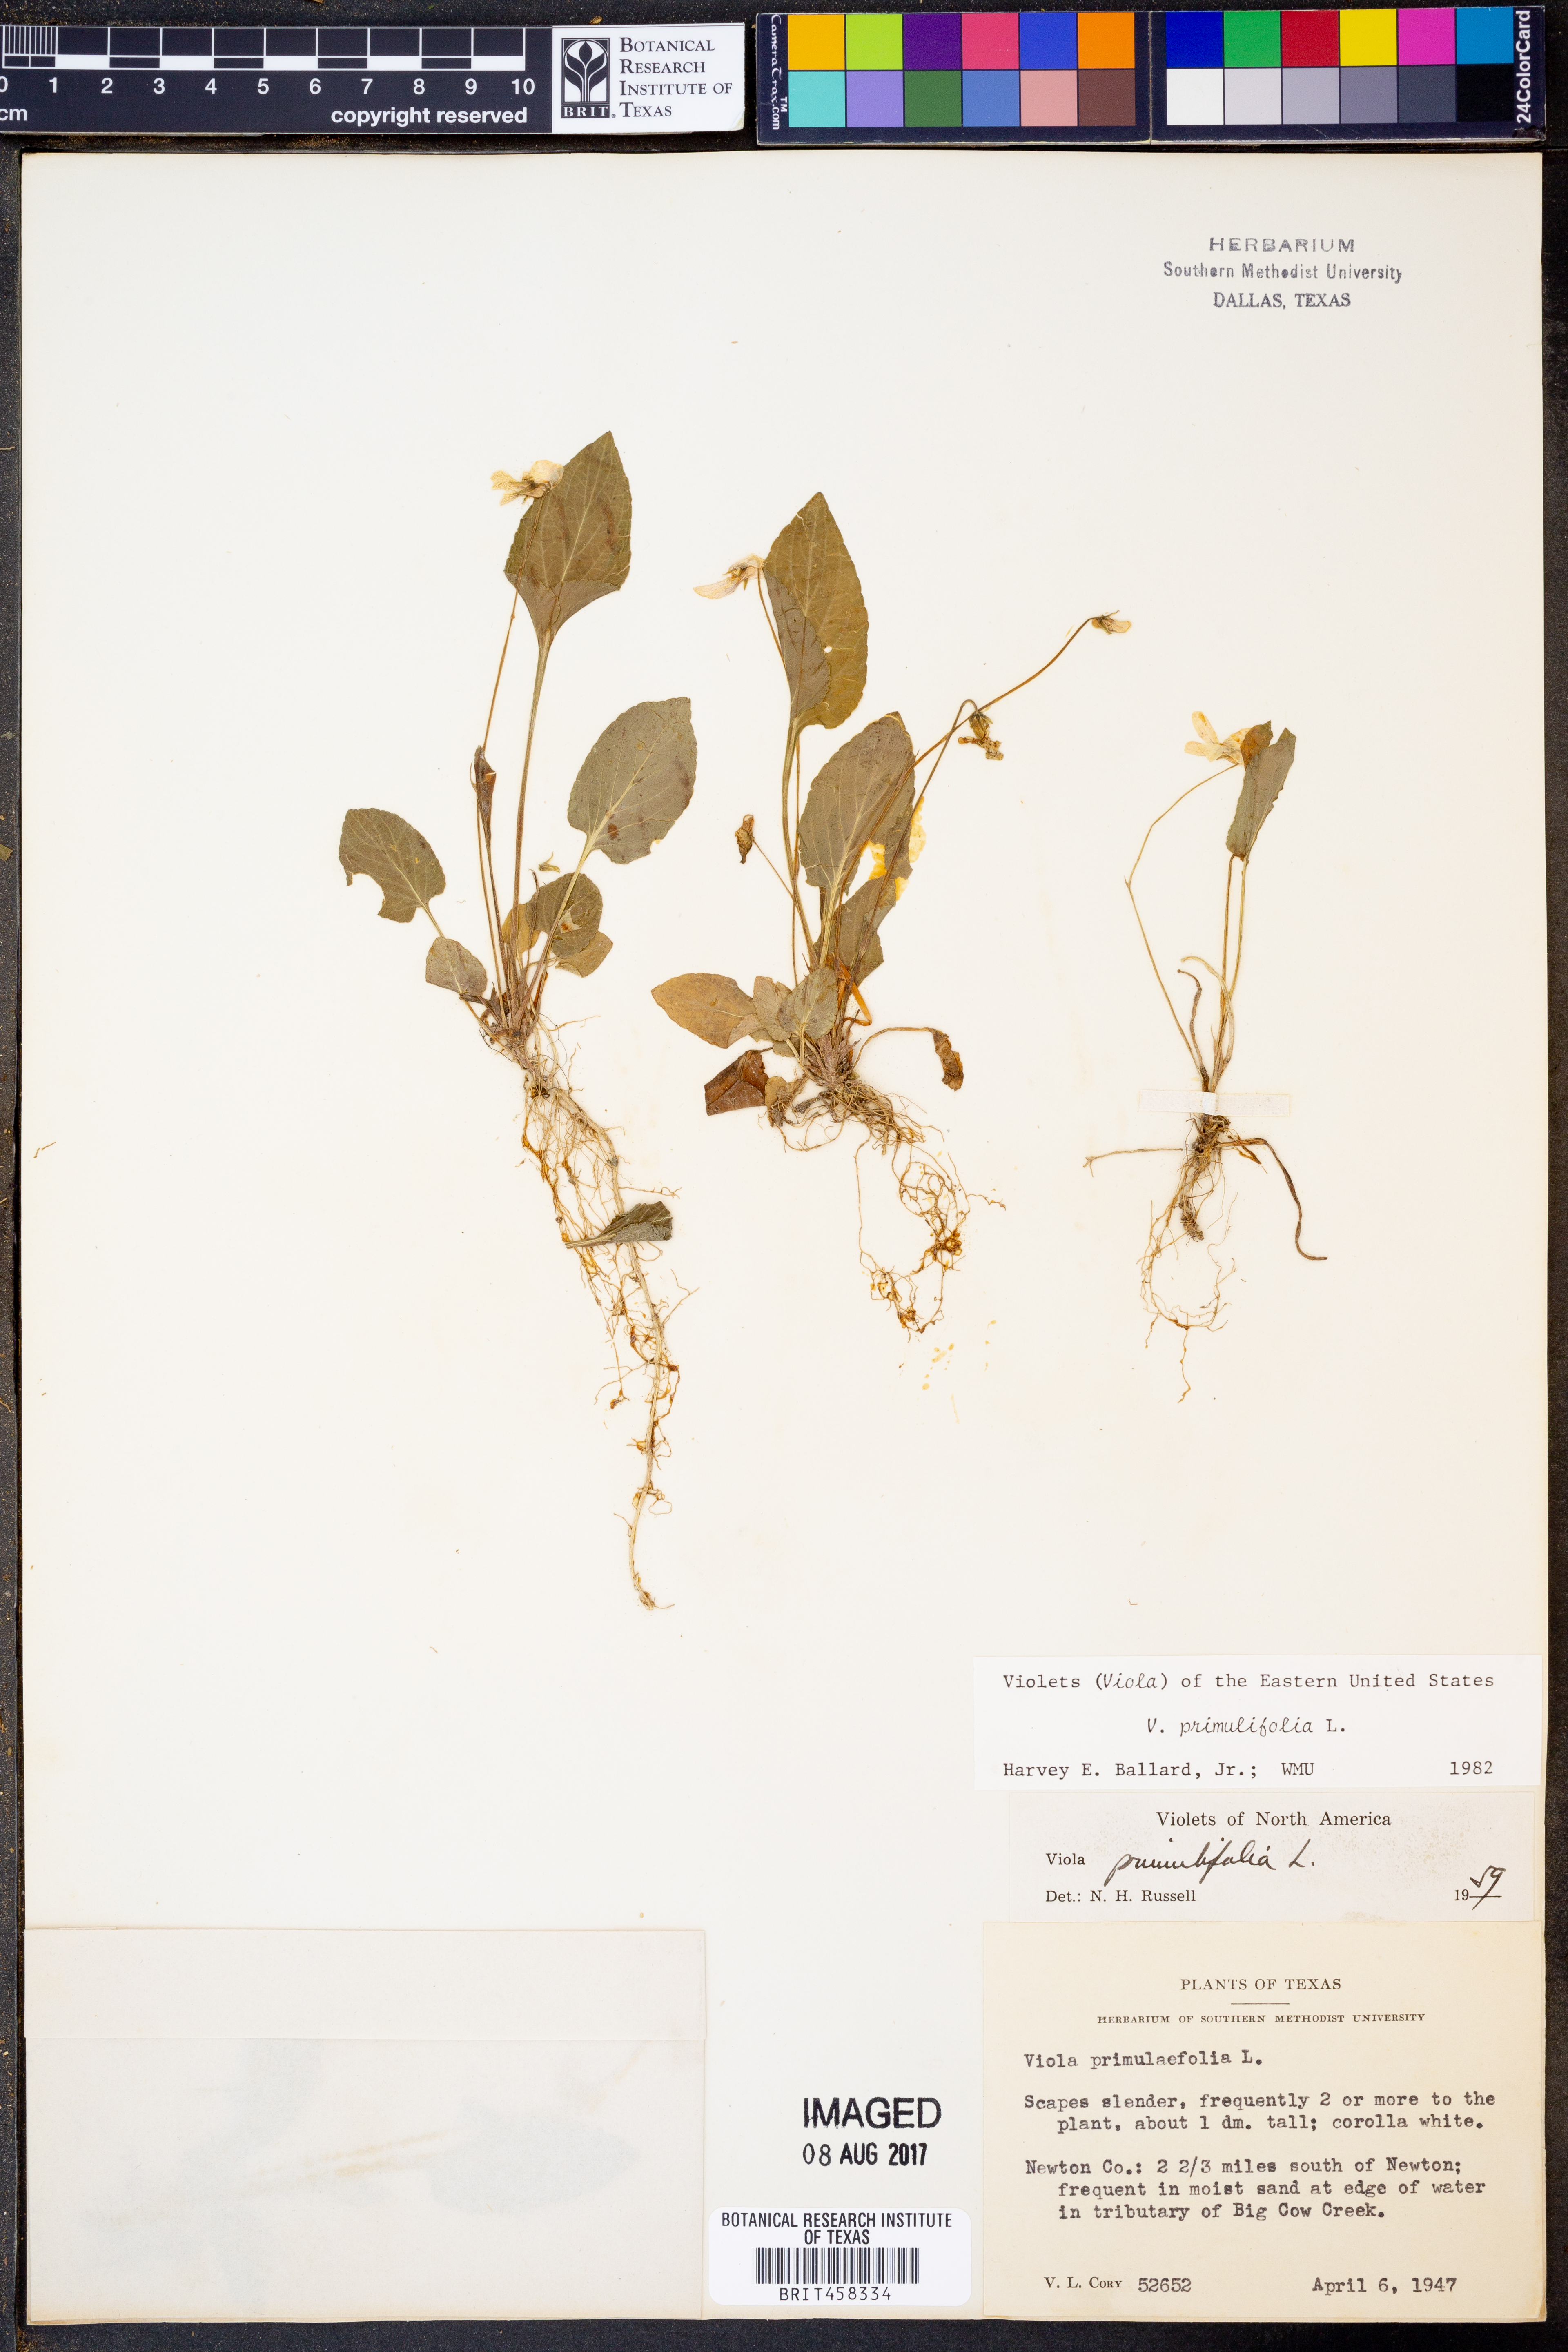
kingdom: Plantae
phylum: Tracheophyta
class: Magnoliopsida
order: Malpighiales
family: Violaceae
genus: Viola
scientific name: Viola primulifolia
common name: Primrose-leaf violet
